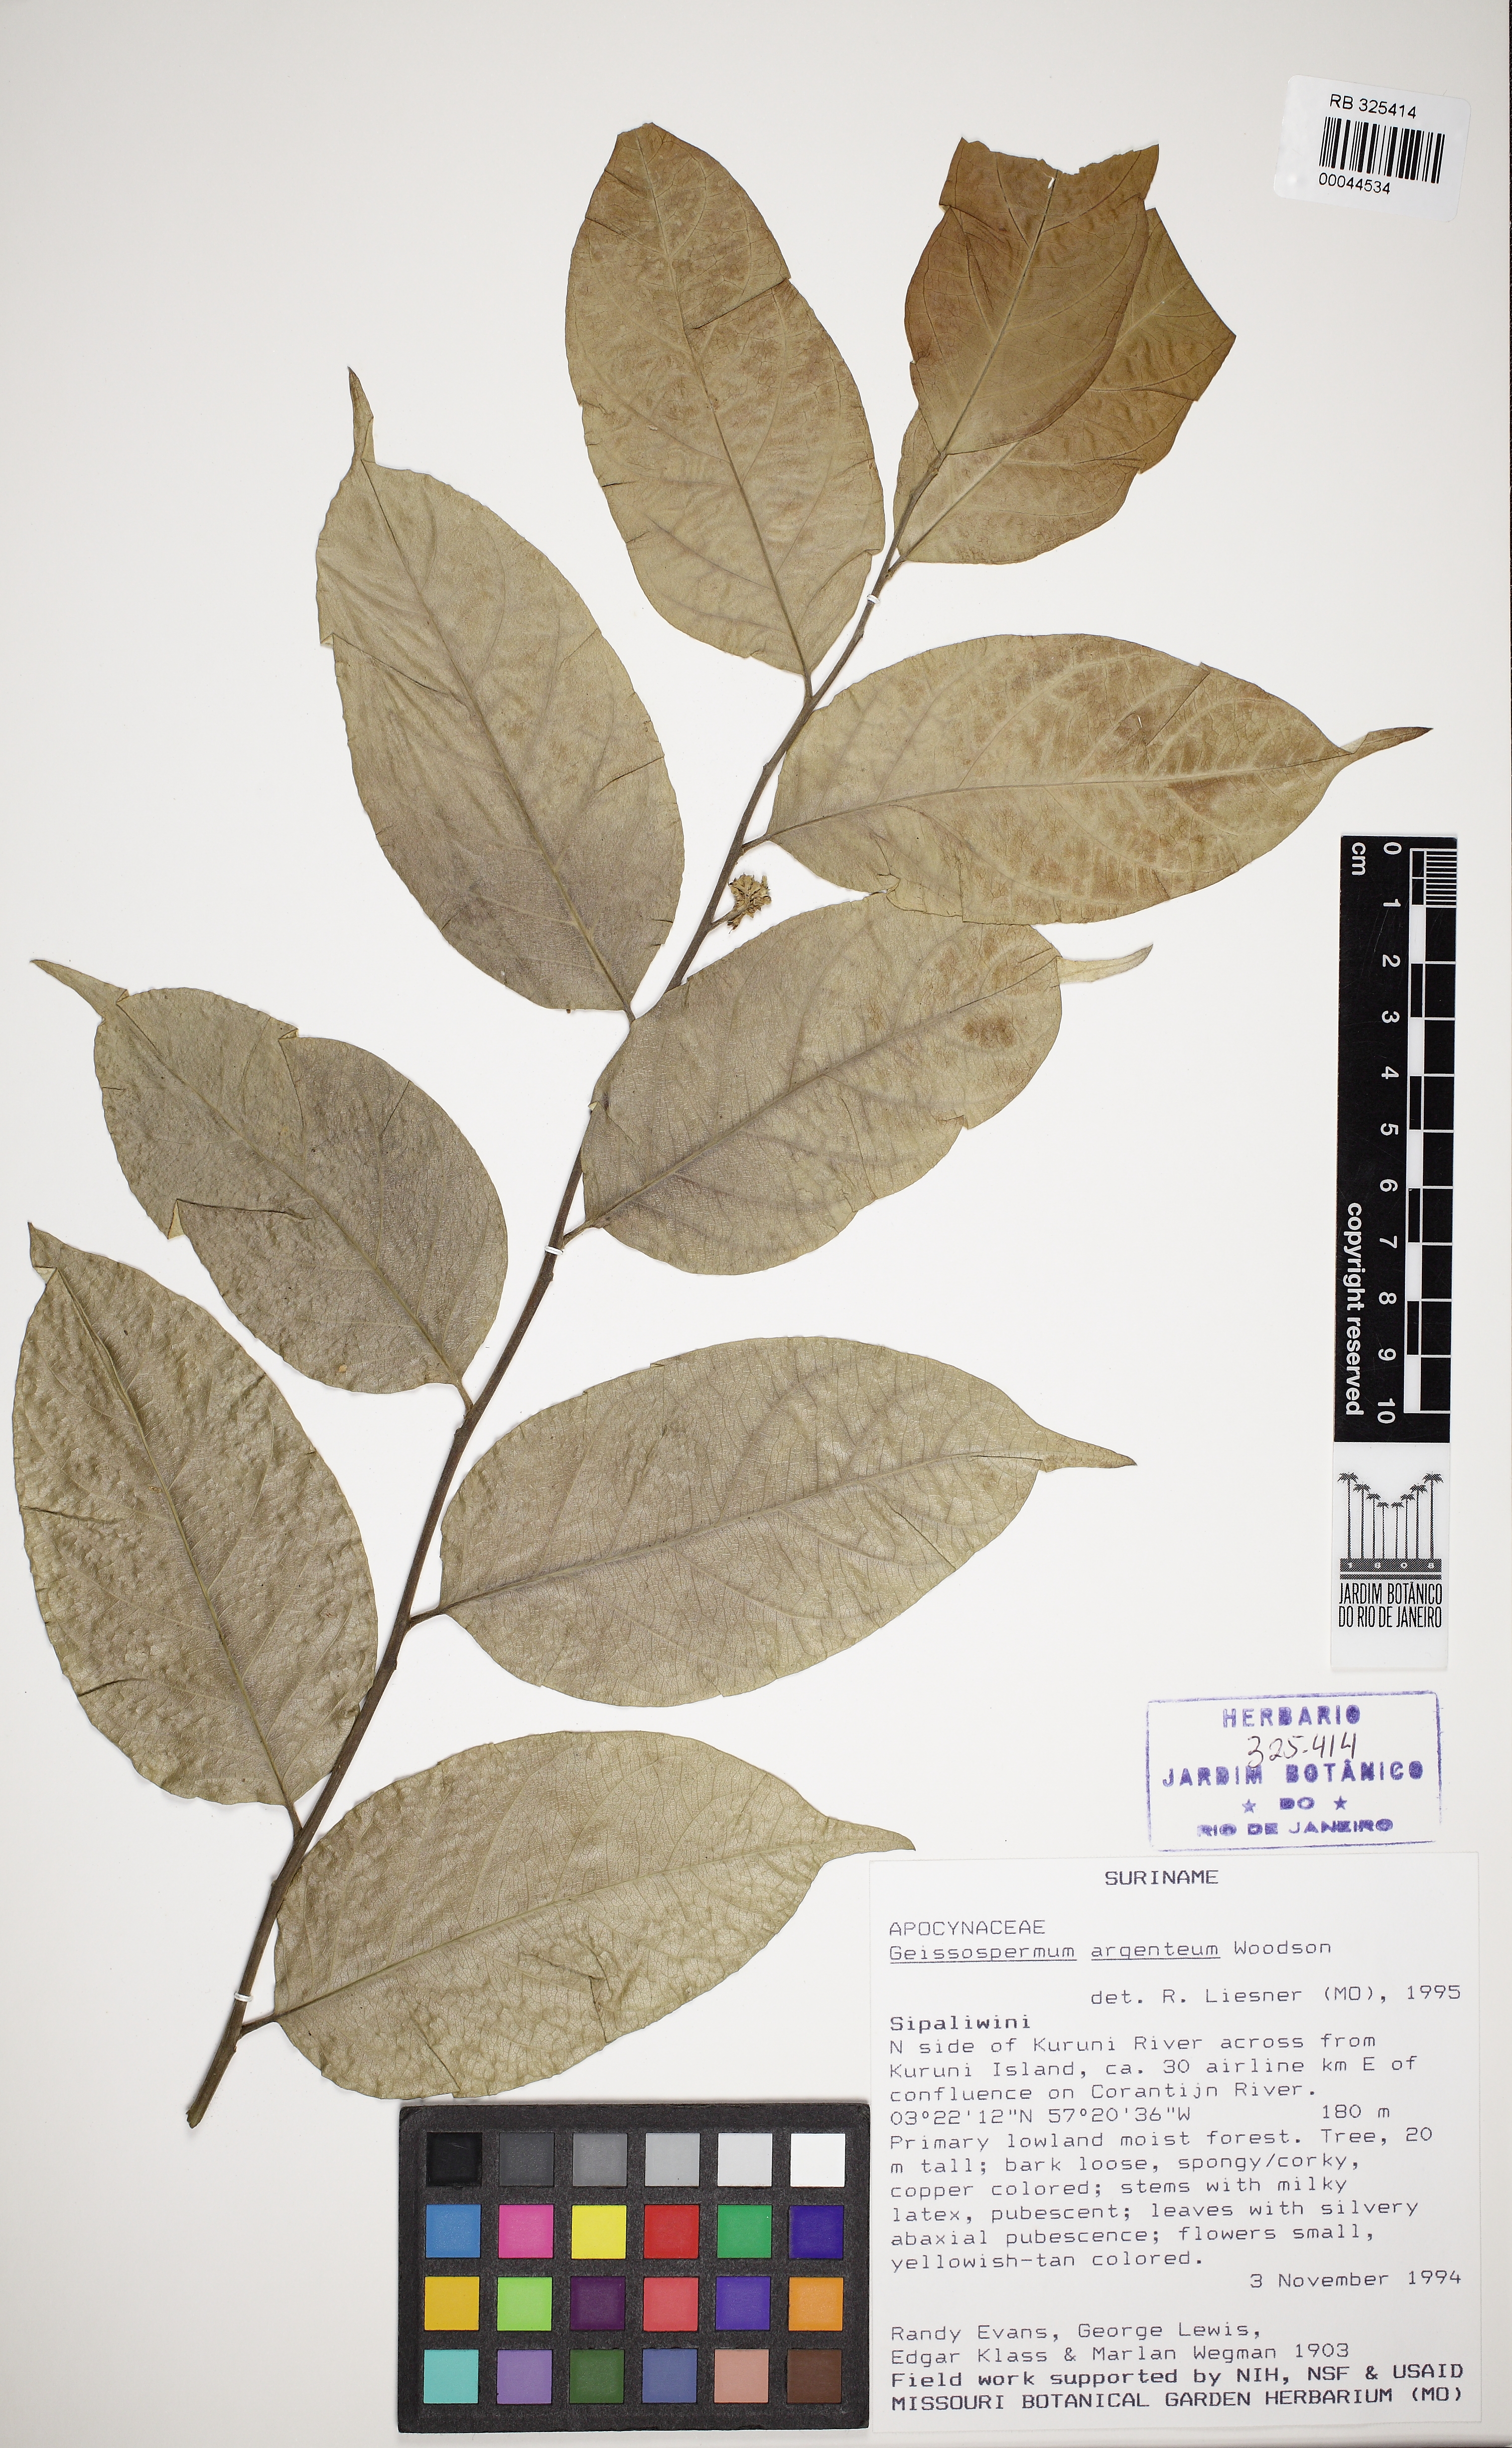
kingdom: Plantae
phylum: Tracheophyta
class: Magnoliopsida
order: Gentianales
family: Apocynaceae
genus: Geissospermum
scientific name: Geissospermum sericeum
